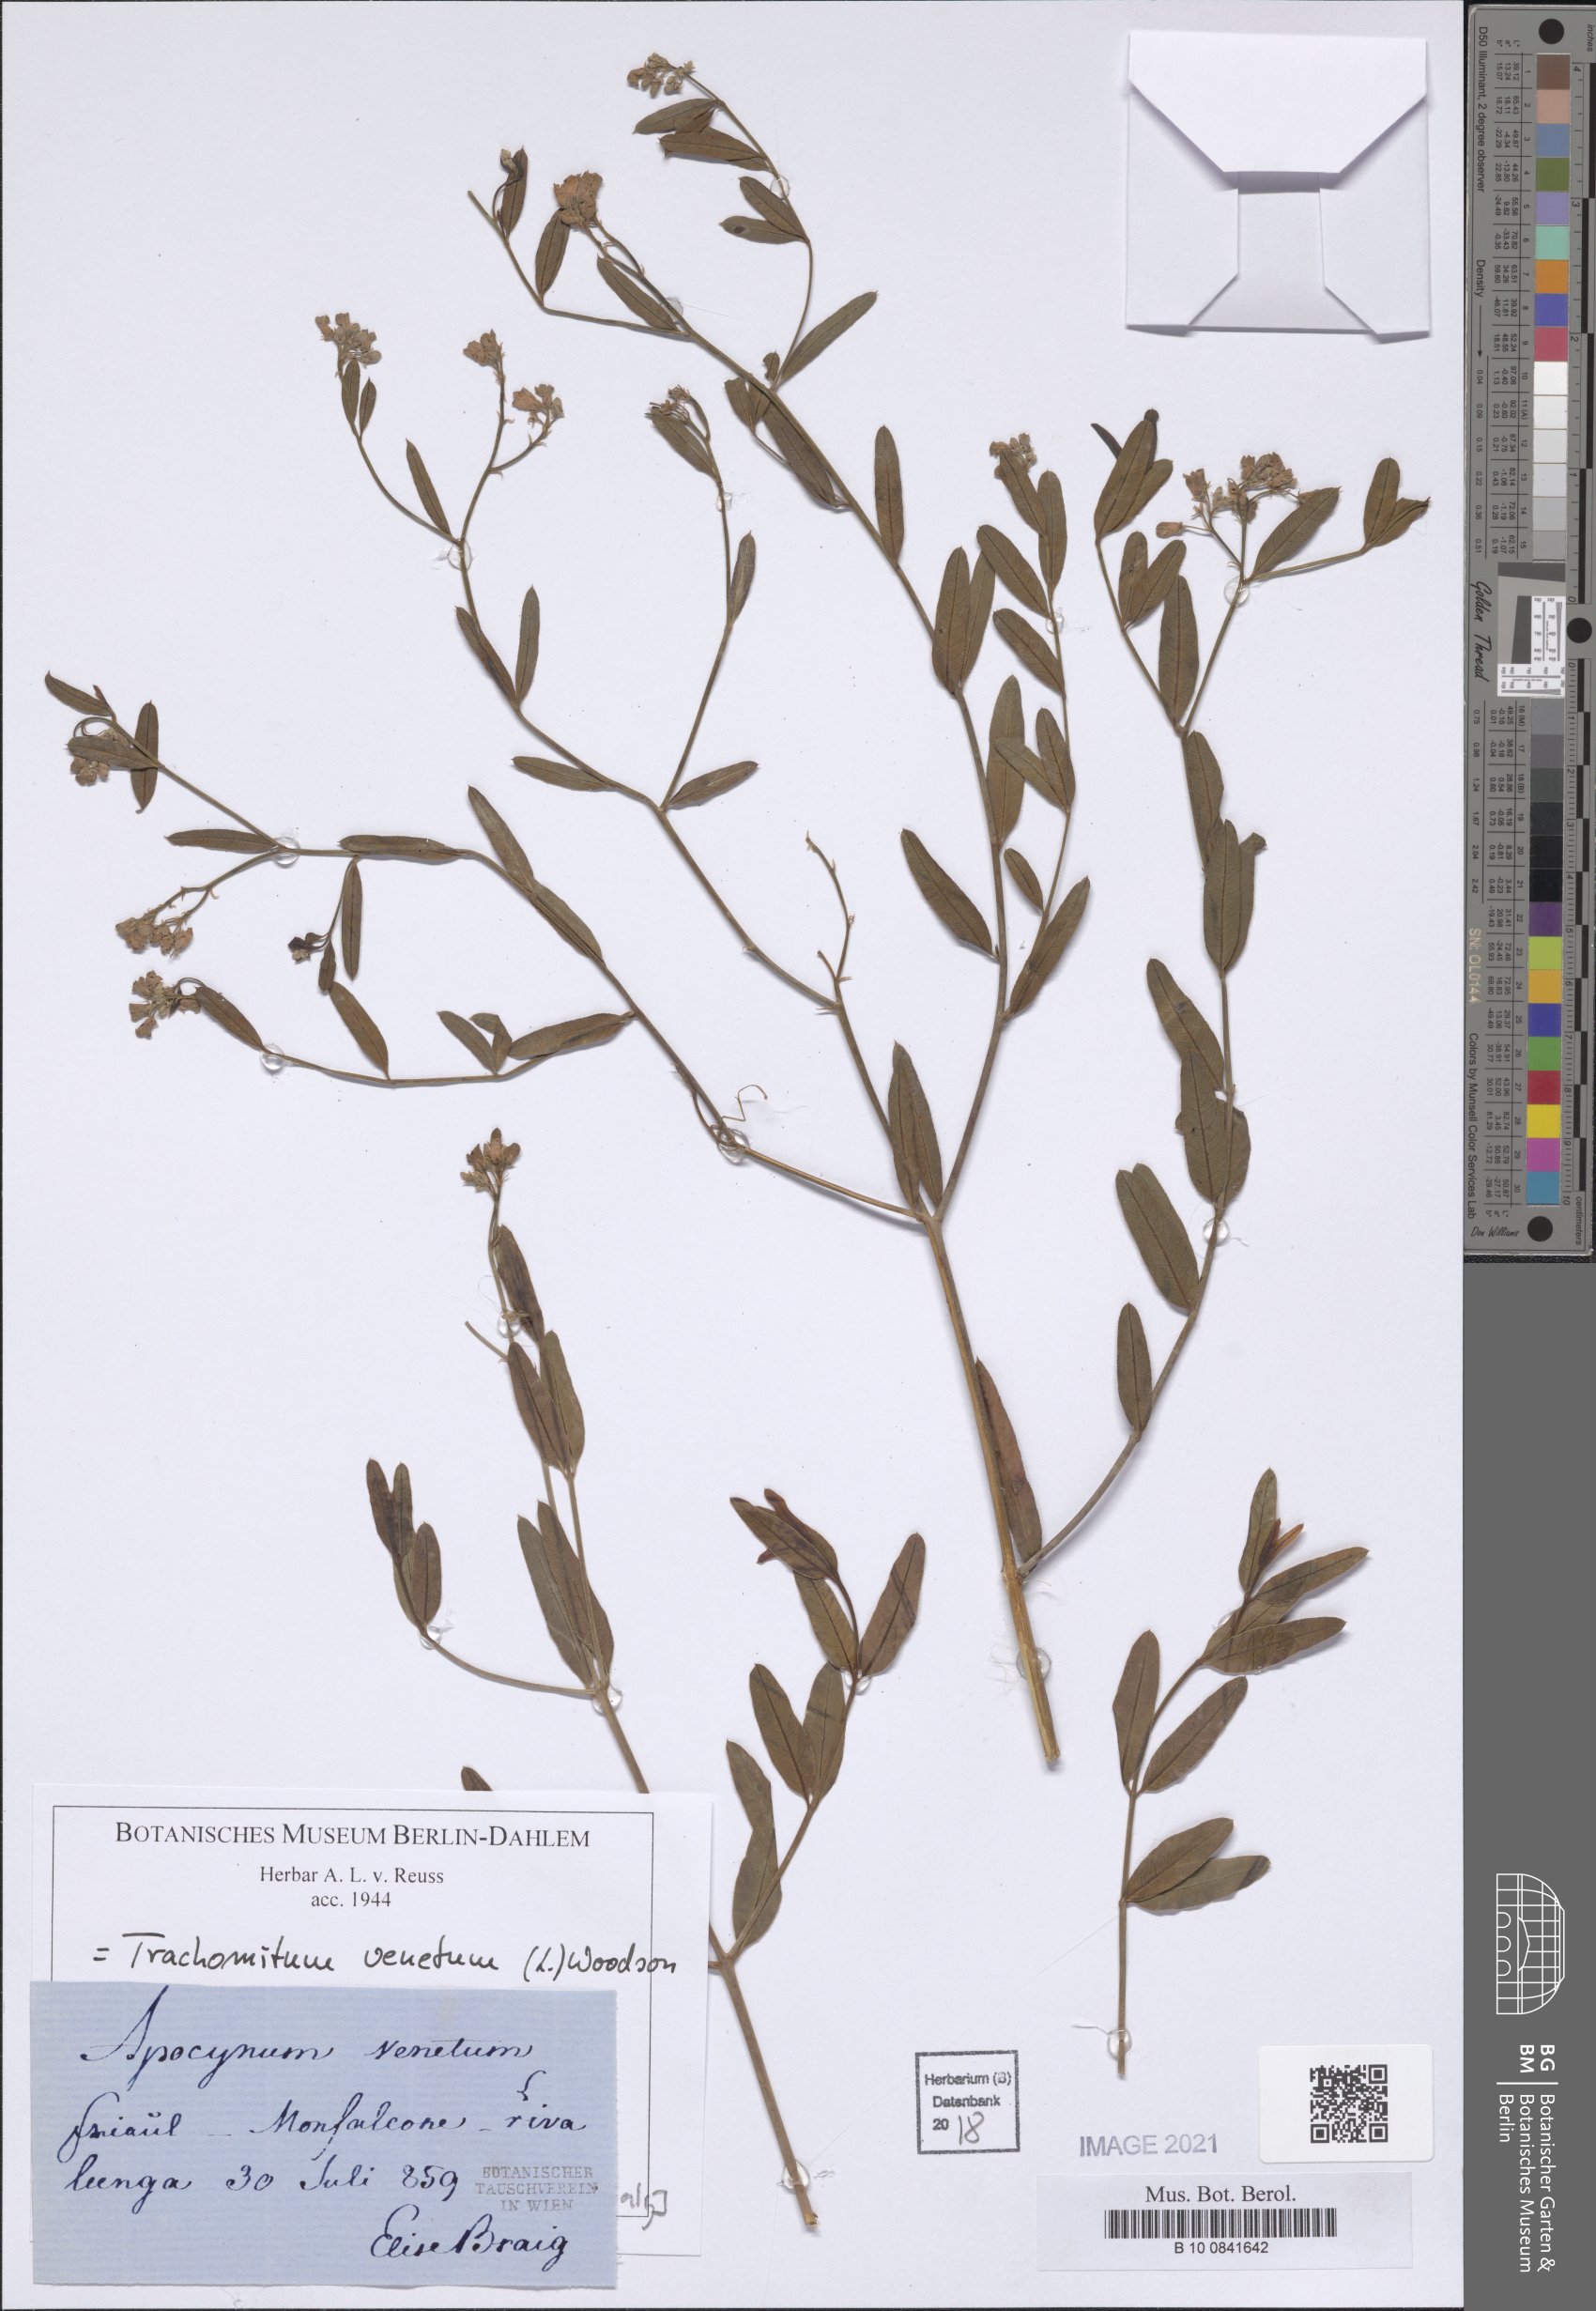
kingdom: Plantae
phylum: Tracheophyta
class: Magnoliopsida
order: Gentianales
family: Apocynaceae
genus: Poacynum
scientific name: Poacynum venetum
